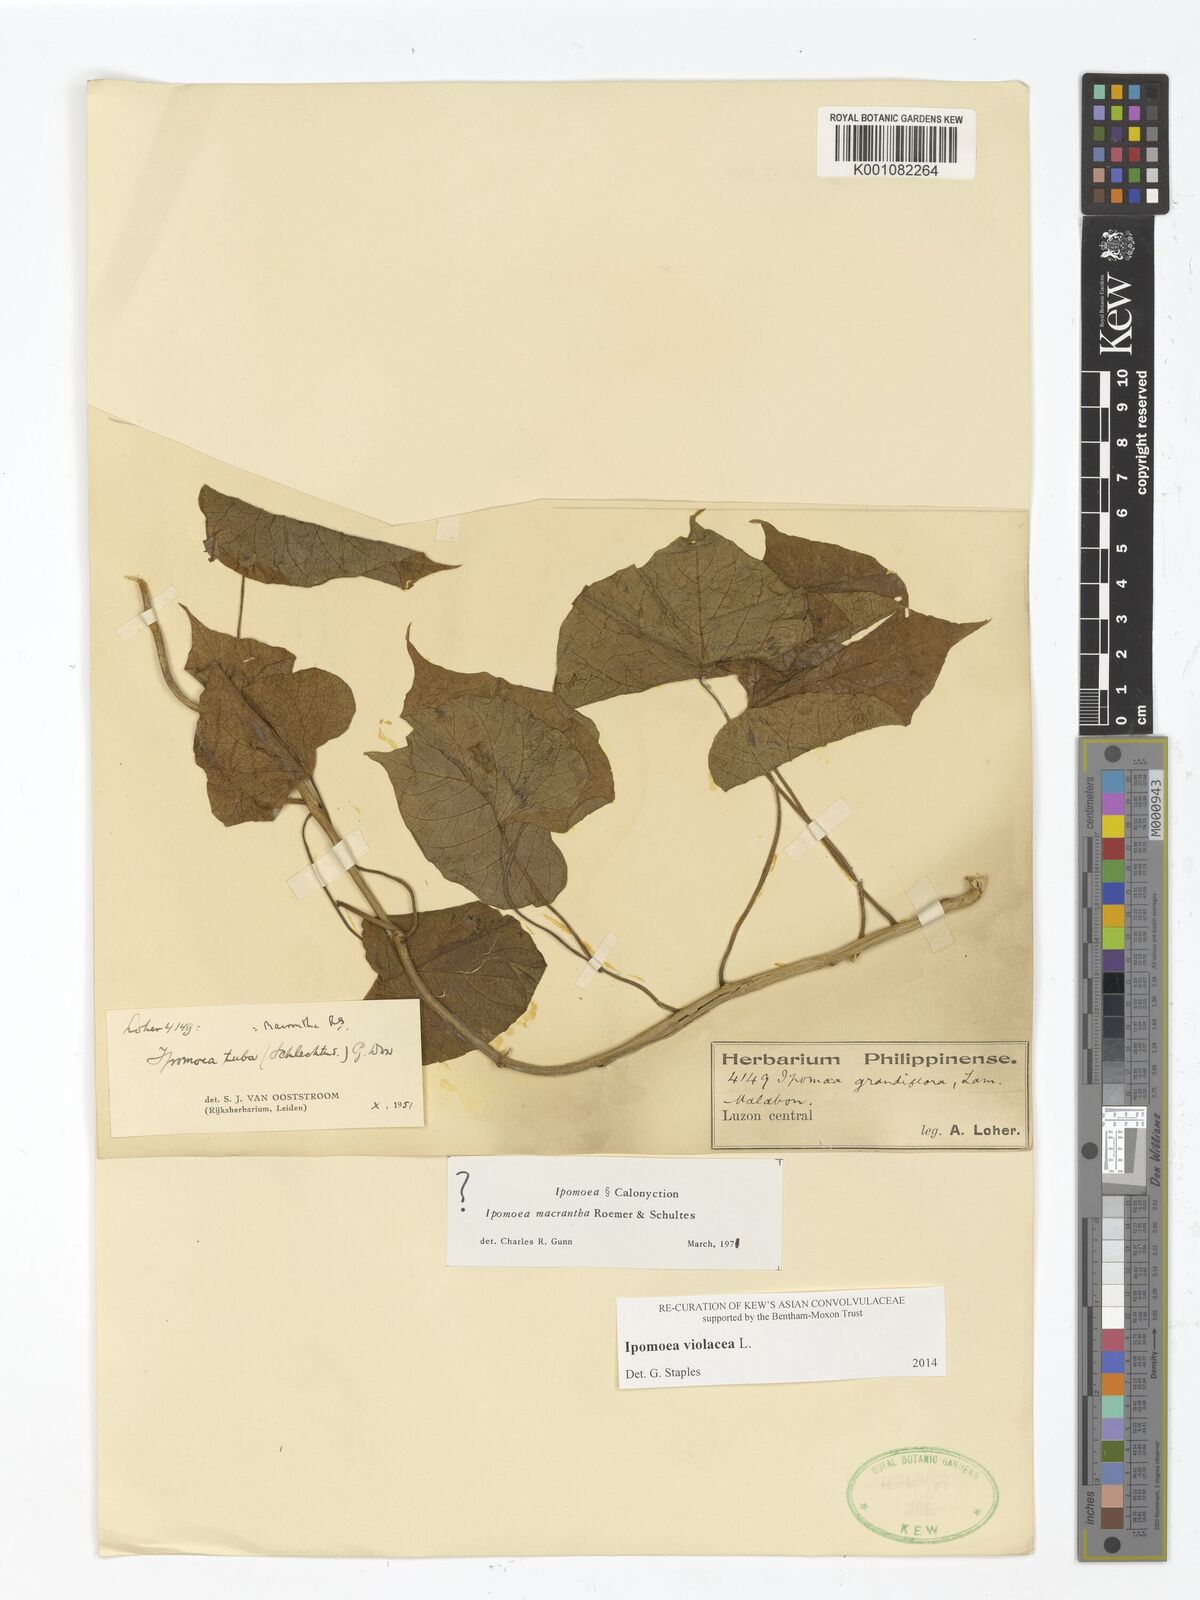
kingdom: Plantae
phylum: Tracheophyta
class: Magnoliopsida
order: Solanales
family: Convolvulaceae
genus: Ipomoea
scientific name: Ipomoea violacea
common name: Beach moonflower
